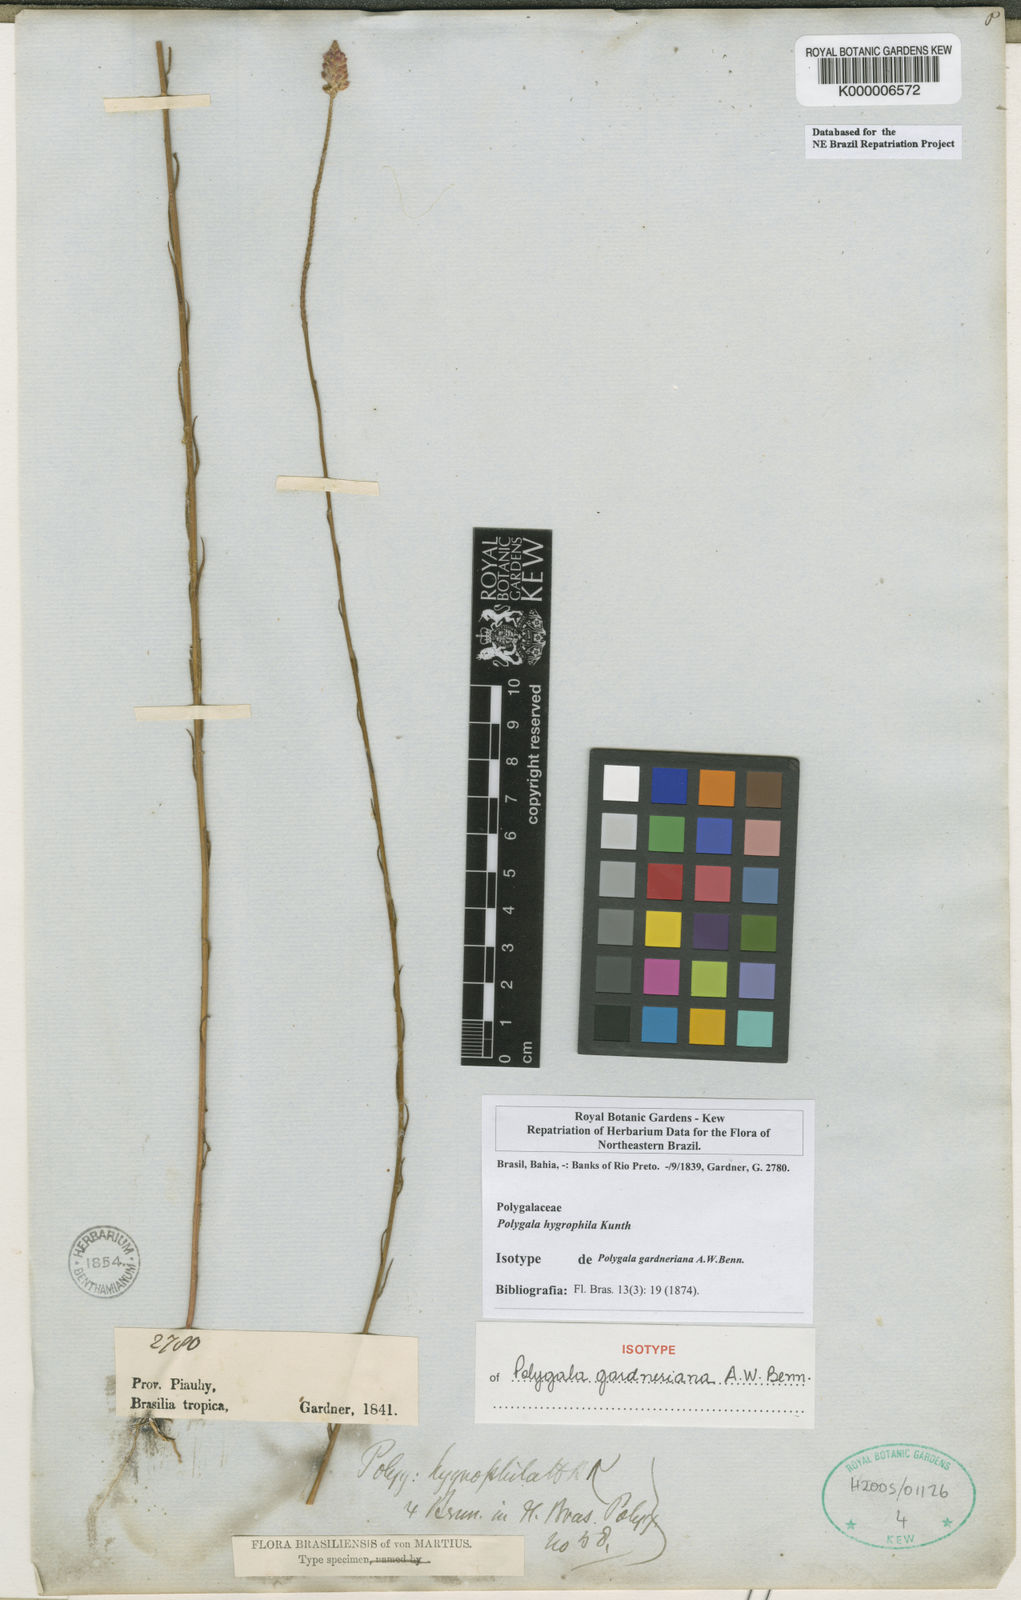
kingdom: Plantae
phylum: Tracheophyta
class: Magnoliopsida
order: Fabales
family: Polygalaceae
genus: Polygala
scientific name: Polygala hygrophila
